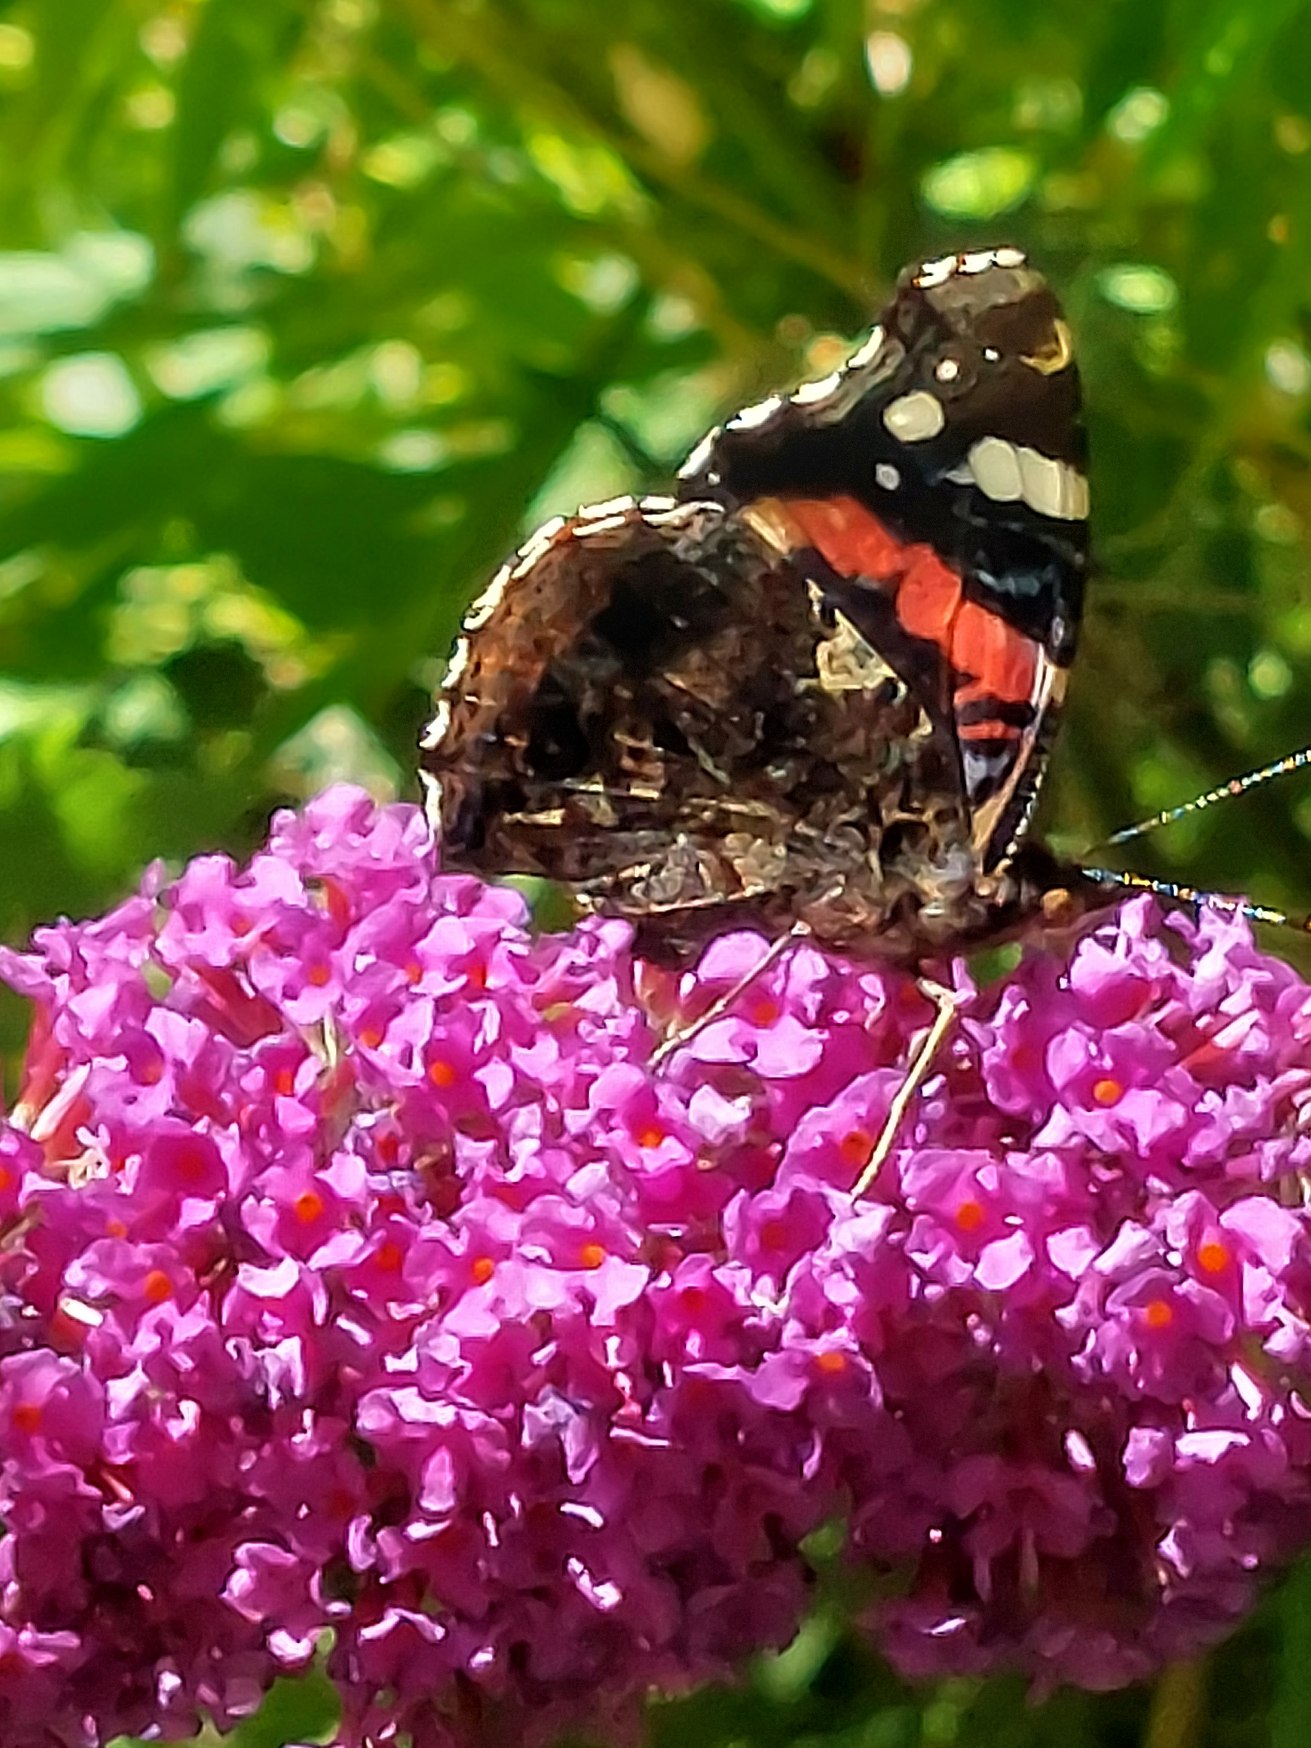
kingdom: Animalia
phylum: Arthropoda
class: Insecta
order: Lepidoptera
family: Nymphalidae
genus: Vanessa
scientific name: Vanessa atalanta
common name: Admiral
